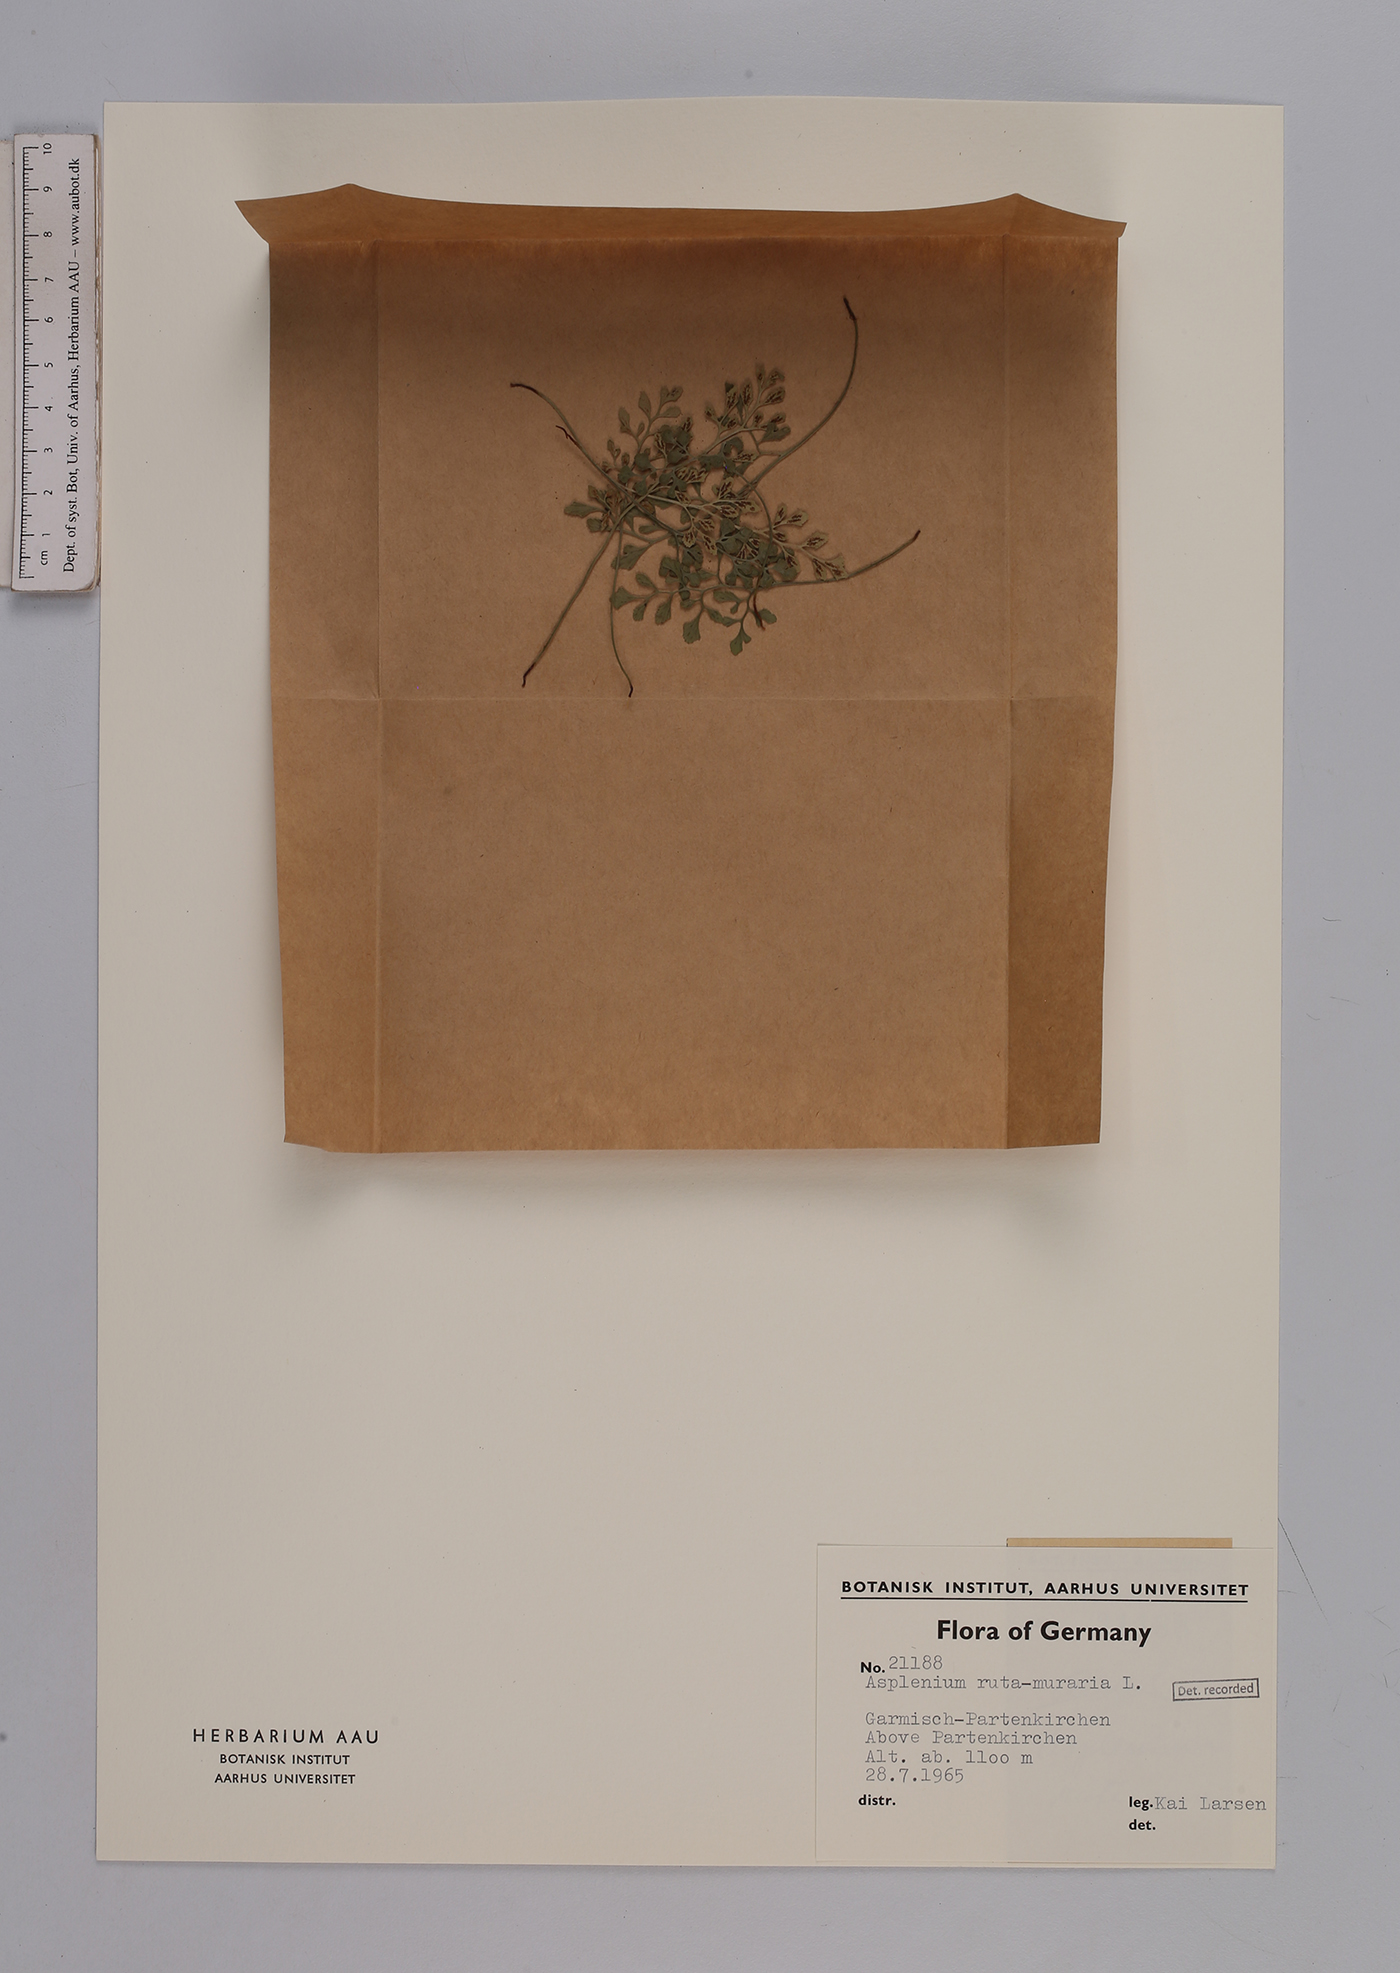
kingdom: Plantae
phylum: Tracheophyta
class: Polypodiopsida
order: Polypodiales
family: Aspleniaceae
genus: Asplenium
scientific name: Asplenium ruta-muraria
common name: Wall-rue
